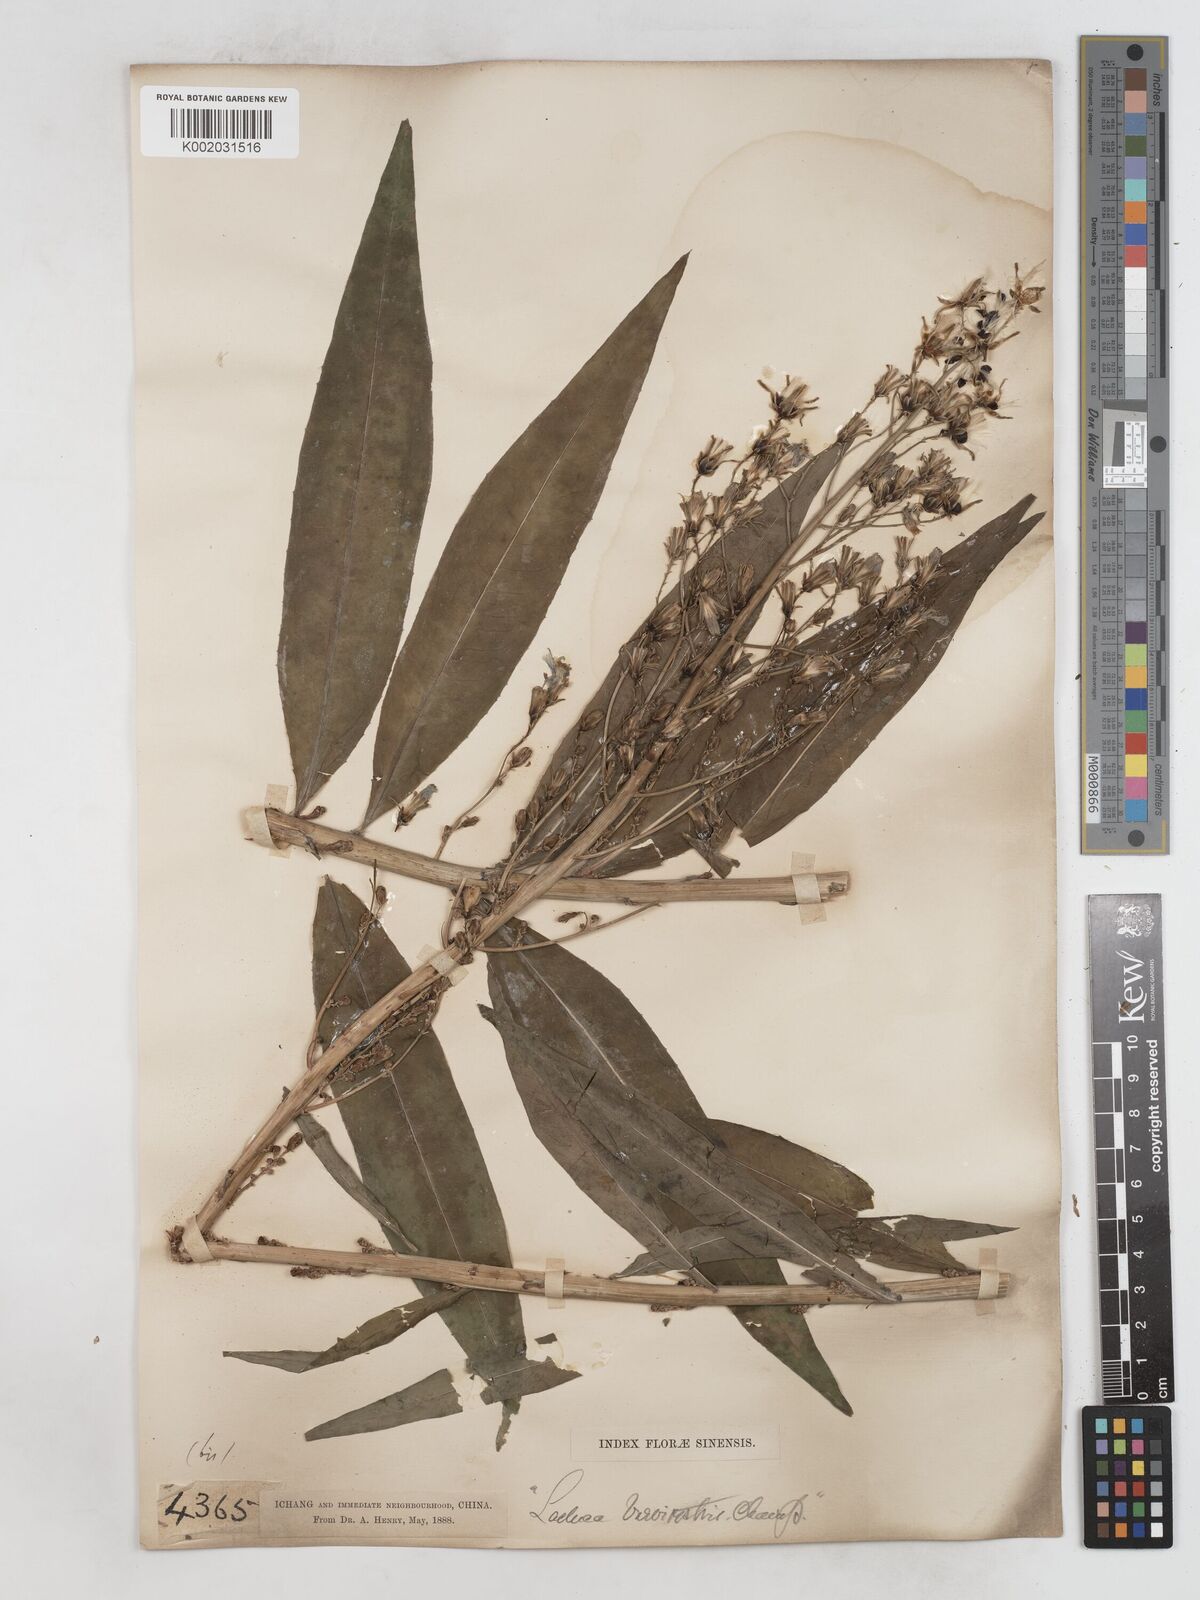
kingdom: Plantae
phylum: Tracheophyta
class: Magnoliopsida
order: Asterales
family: Asteraceae
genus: Lactuca
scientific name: Lactuca indica
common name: Wild lettuce
